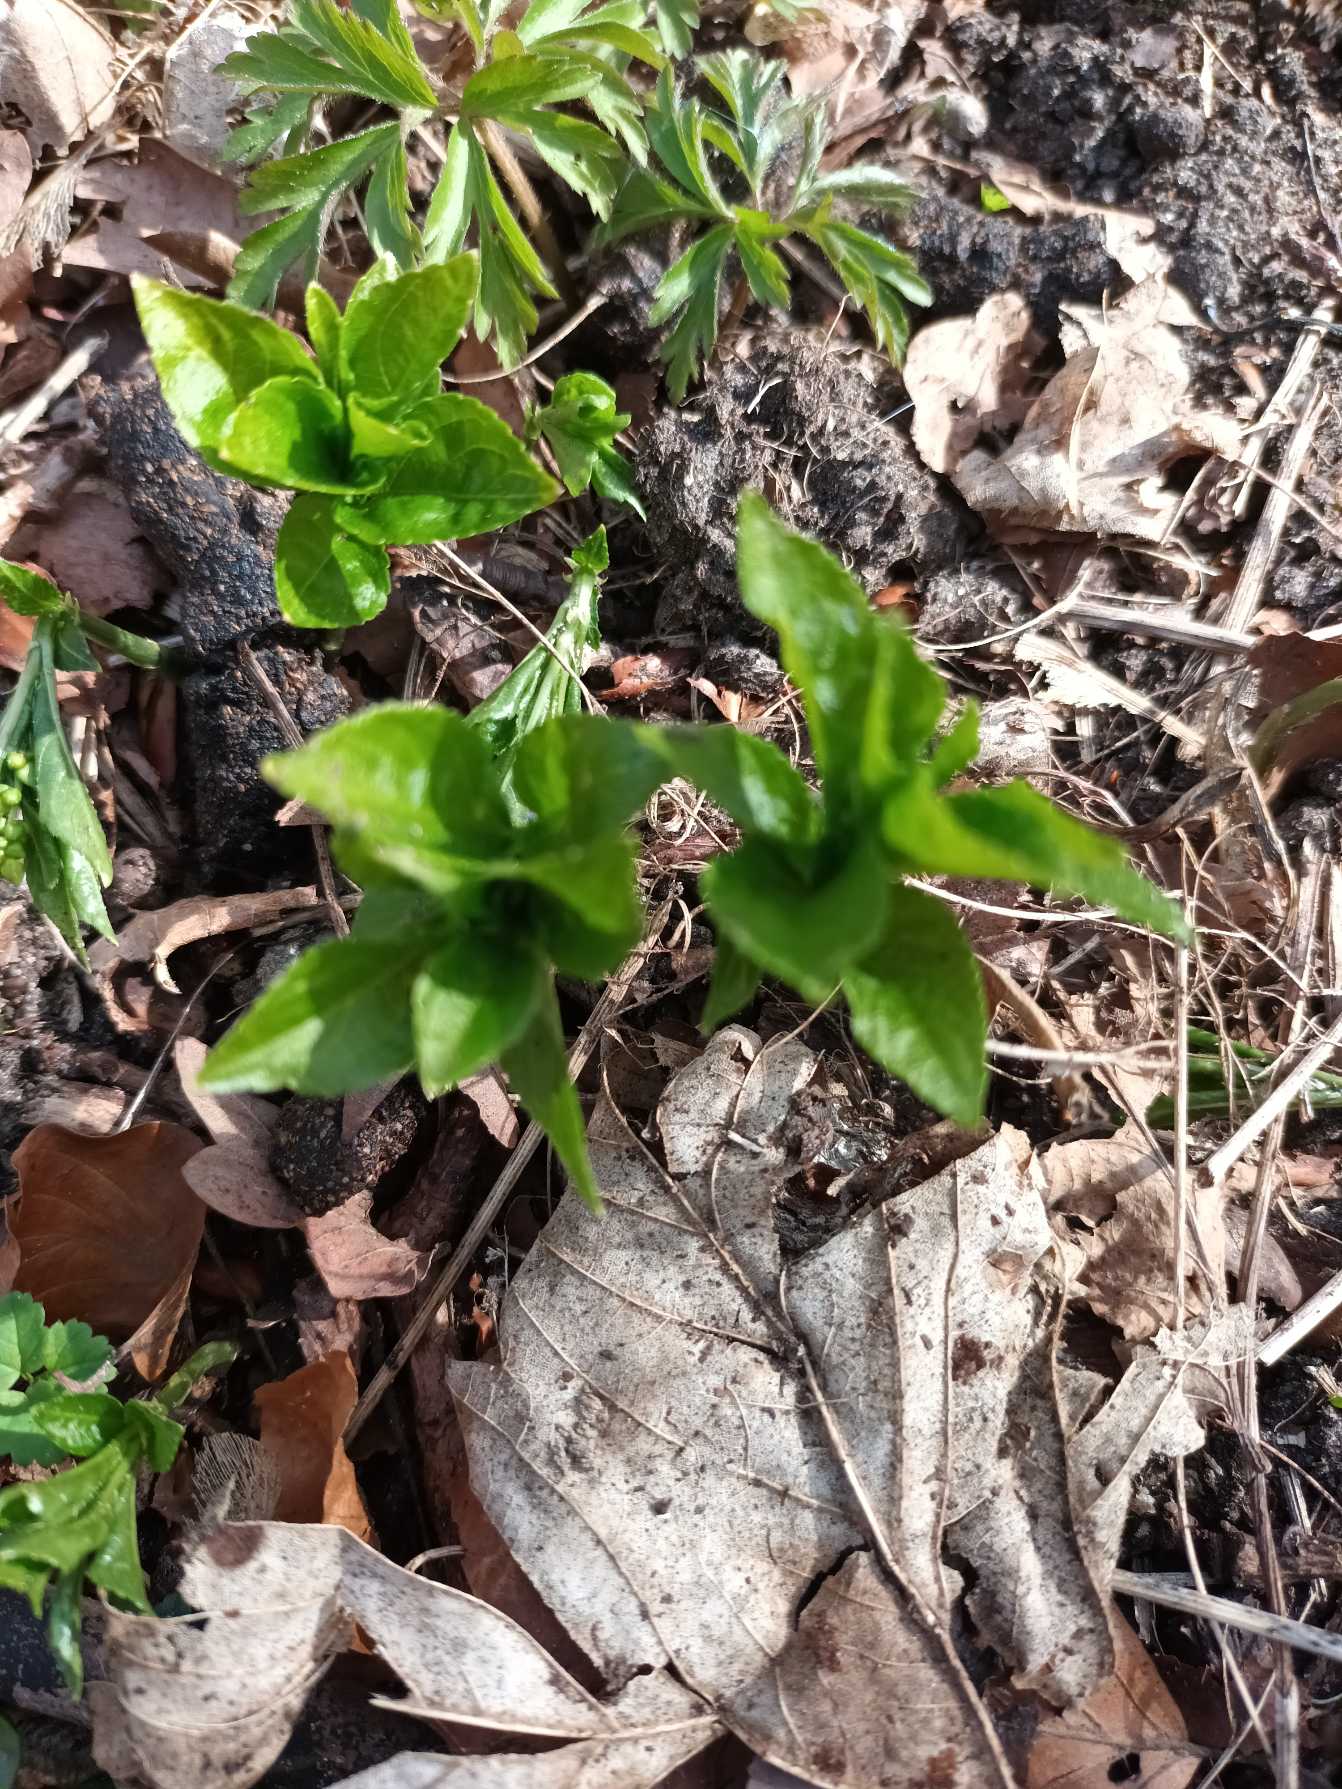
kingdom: Plantae
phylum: Tracheophyta
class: Magnoliopsida
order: Malpighiales
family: Euphorbiaceae
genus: Mercurialis
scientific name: Mercurialis perennis
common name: Almindelig bingelurt
